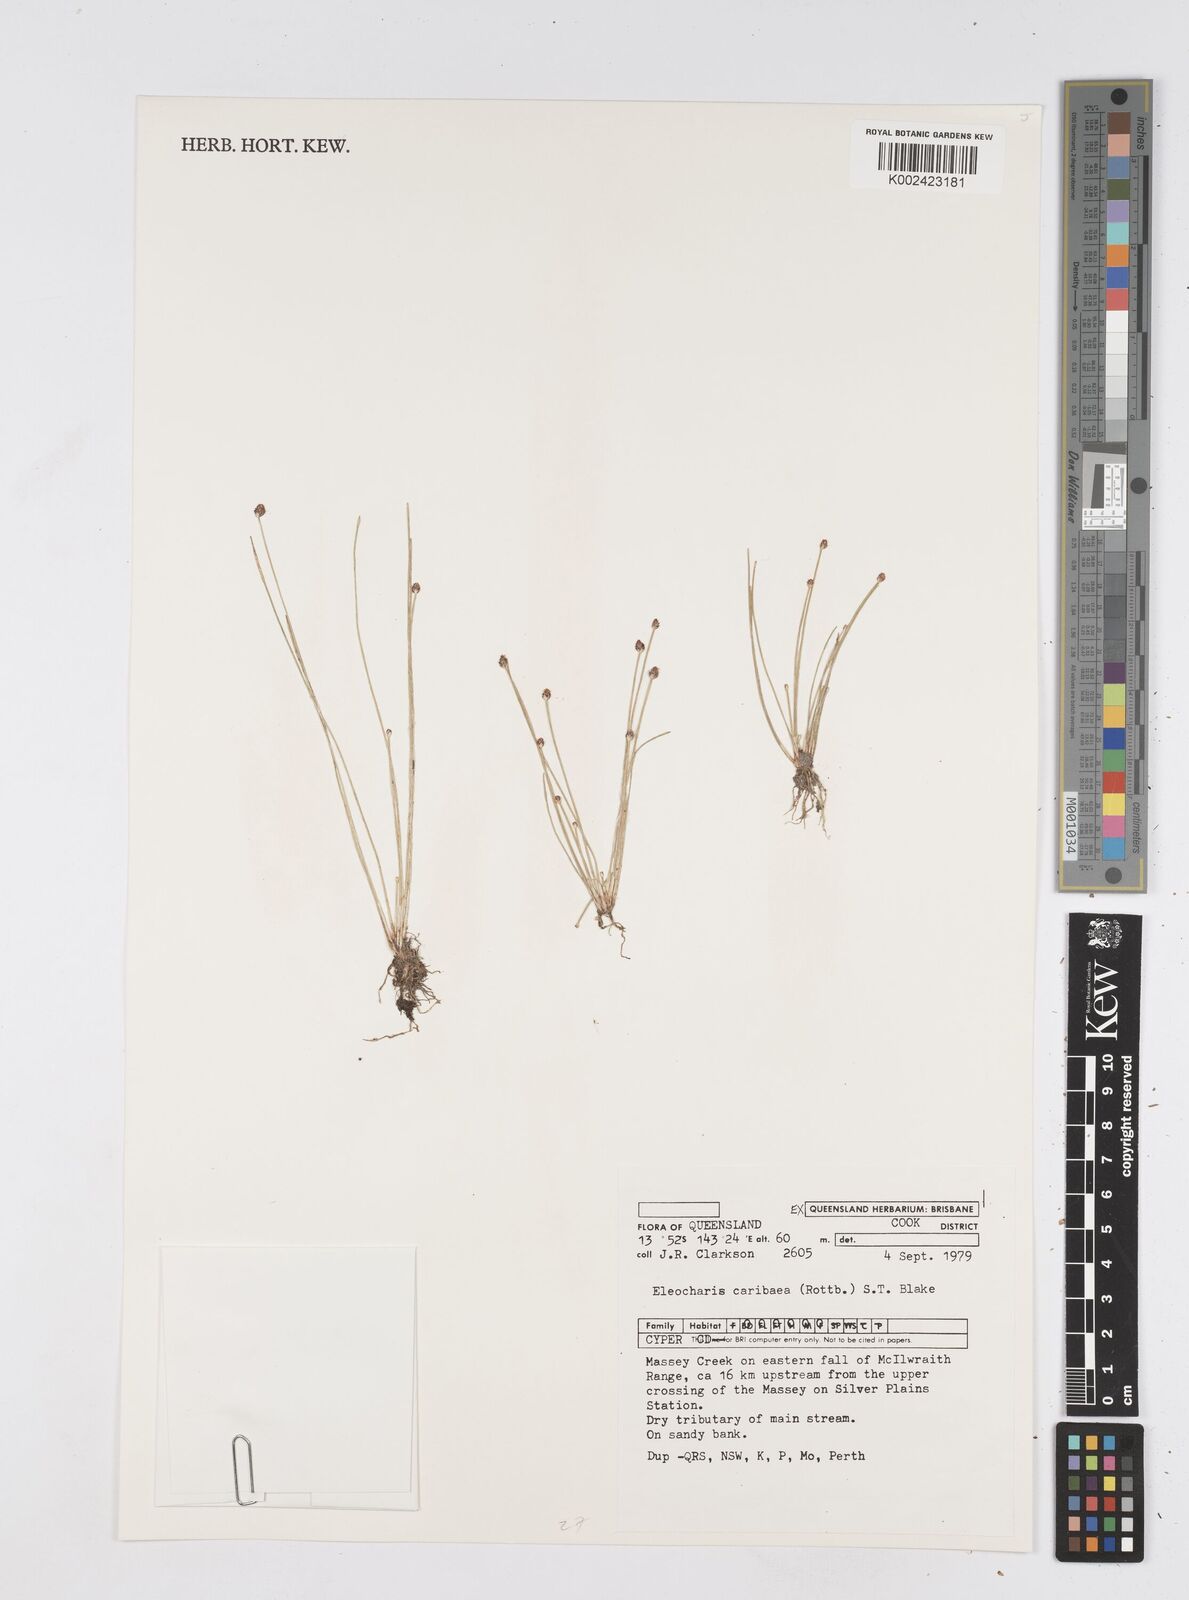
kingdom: Plantae
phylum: Tracheophyta
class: Liliopsida
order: Poales
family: Cyperaceae
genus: Eleocharis
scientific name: Eleocharis geniculata
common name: Canada spikesedge
